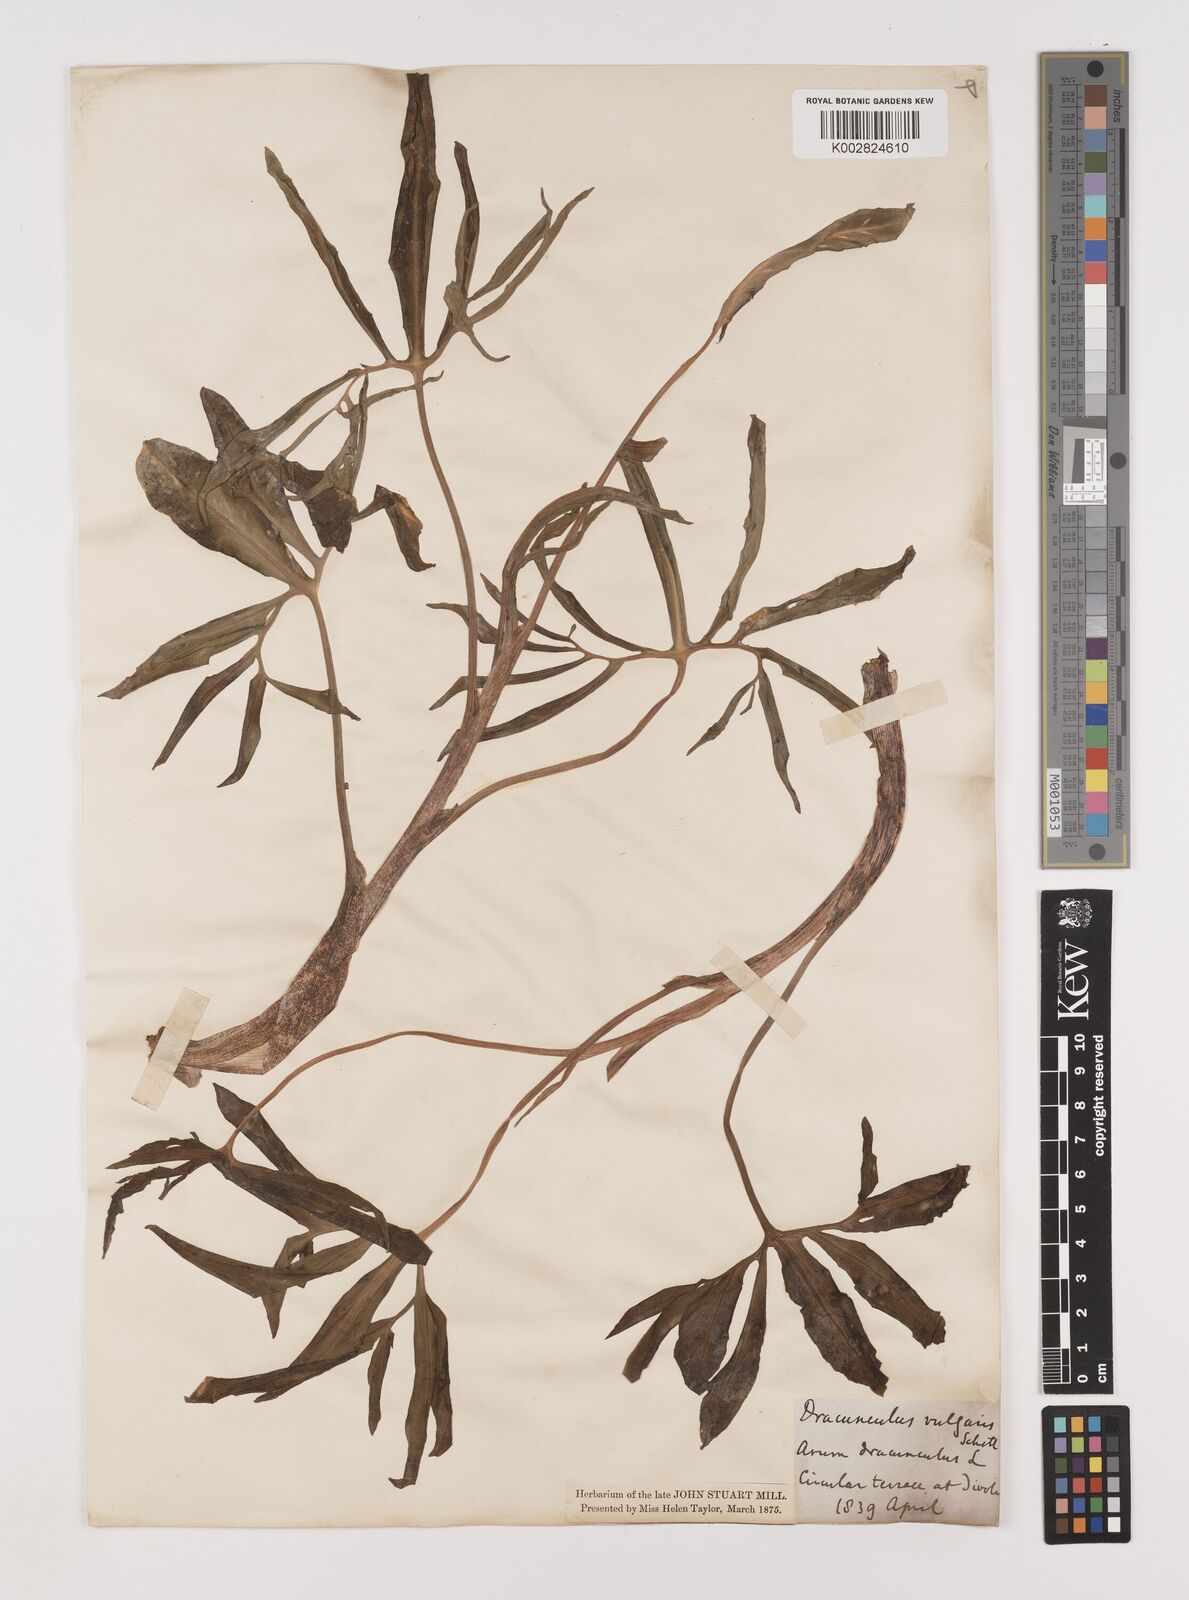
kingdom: Plantae
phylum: Tracheophyta
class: Liliopsida
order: Alismatales
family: Araceae
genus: Dracunculus
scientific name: Dracunculus vulgaris
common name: Dragon arum
